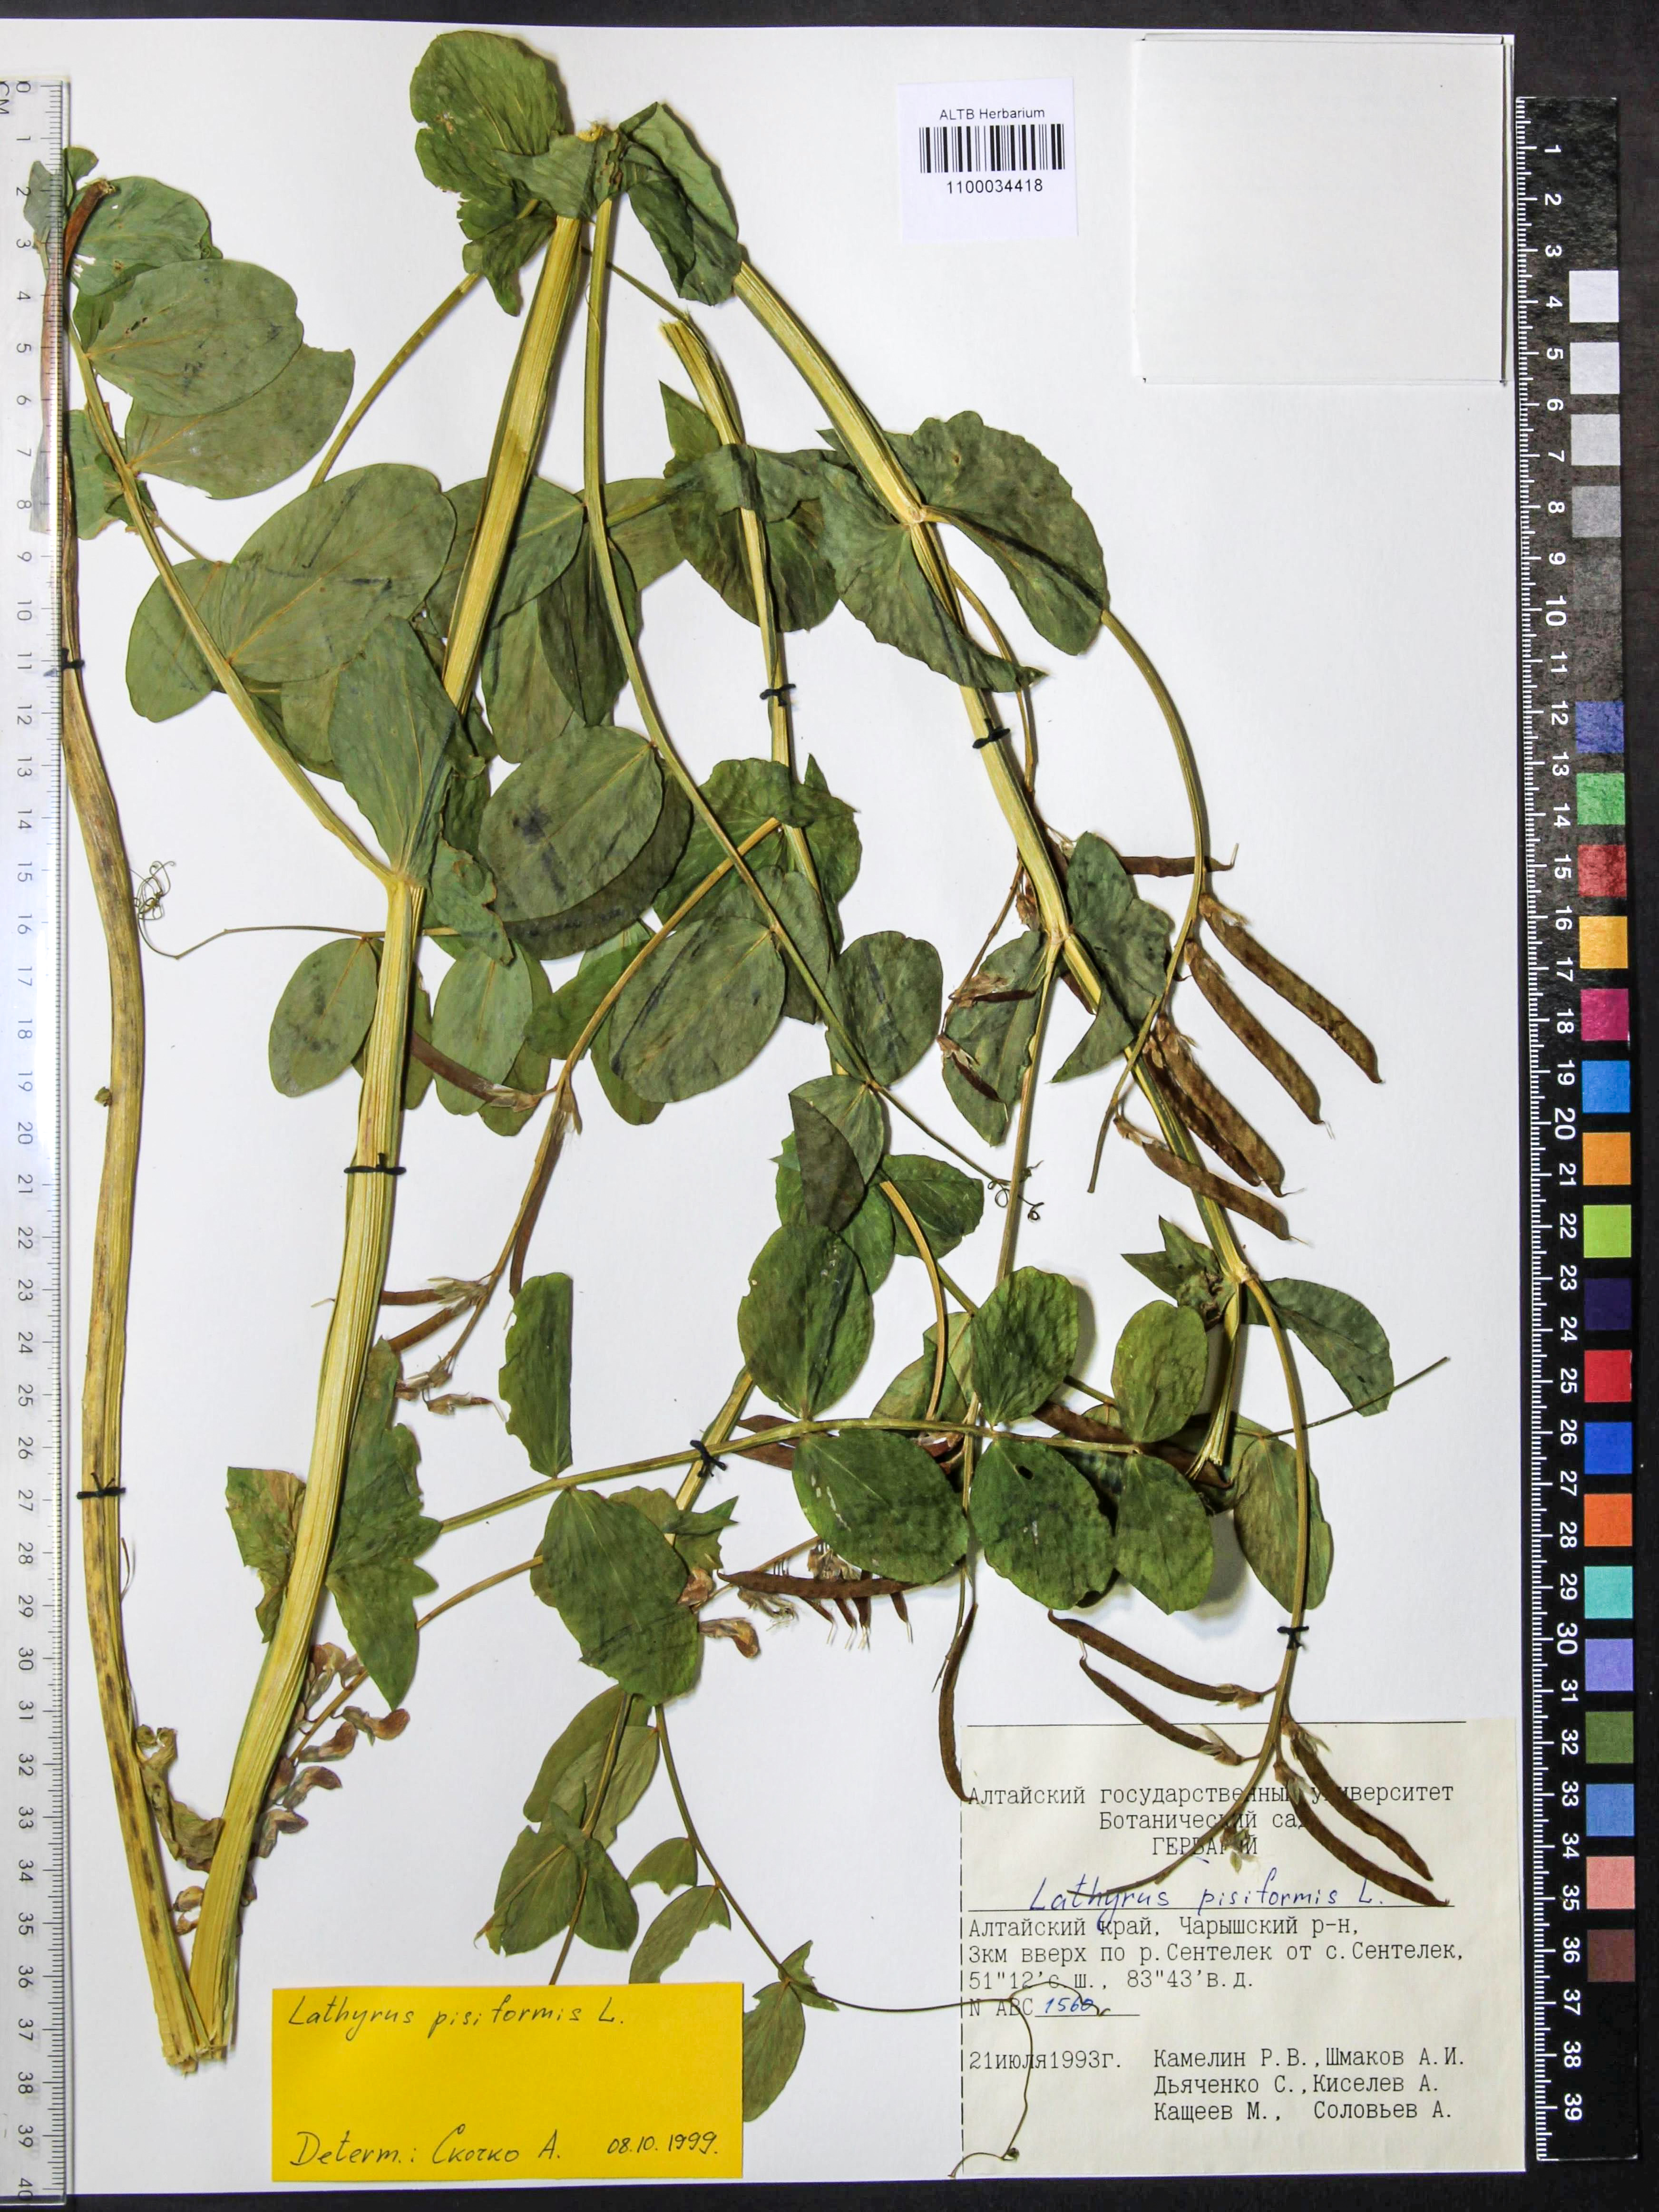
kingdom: Plantae
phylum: Tracheophyta
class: Magnoliopsida
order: Fabales
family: Fabaceae
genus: Lathyrus
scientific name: Lathyrus pisiformis
